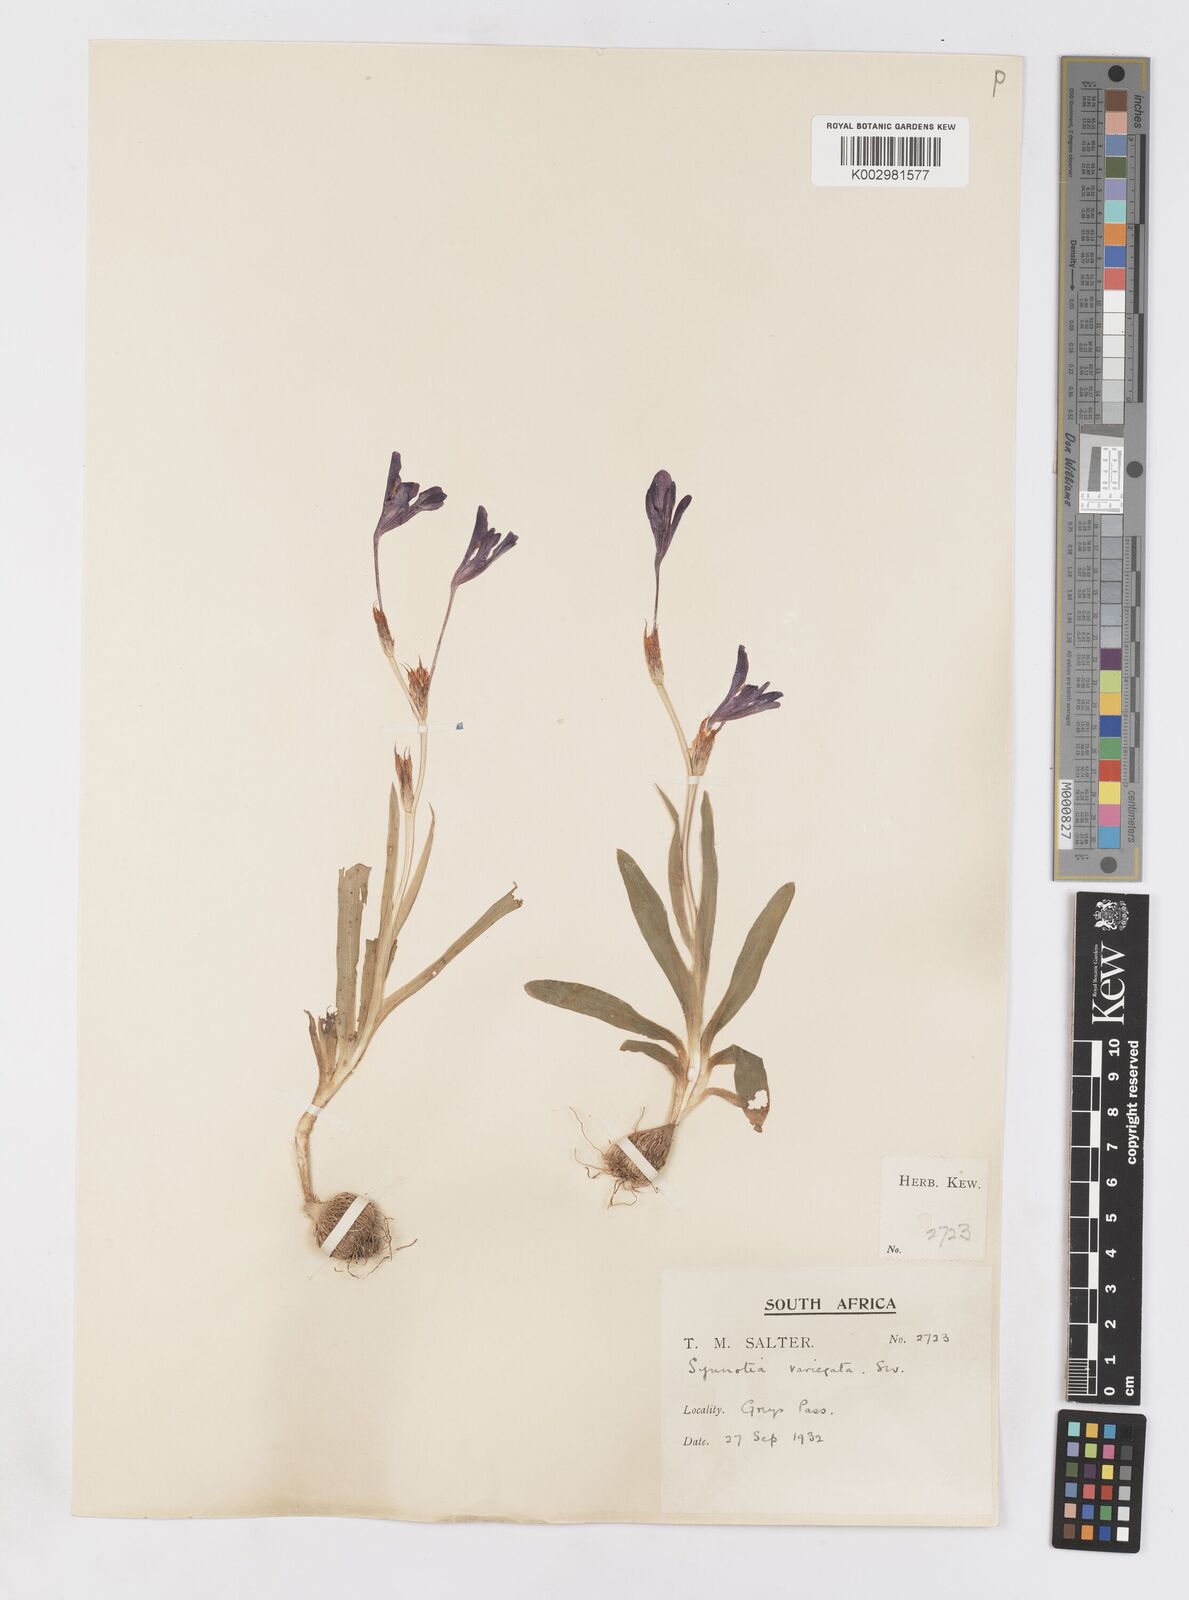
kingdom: Plantae
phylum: Tracheophyta
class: Liliopsida
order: Asparagales
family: Iridaceae
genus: Sparaxis
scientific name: Sparaxis metelerkampiae
